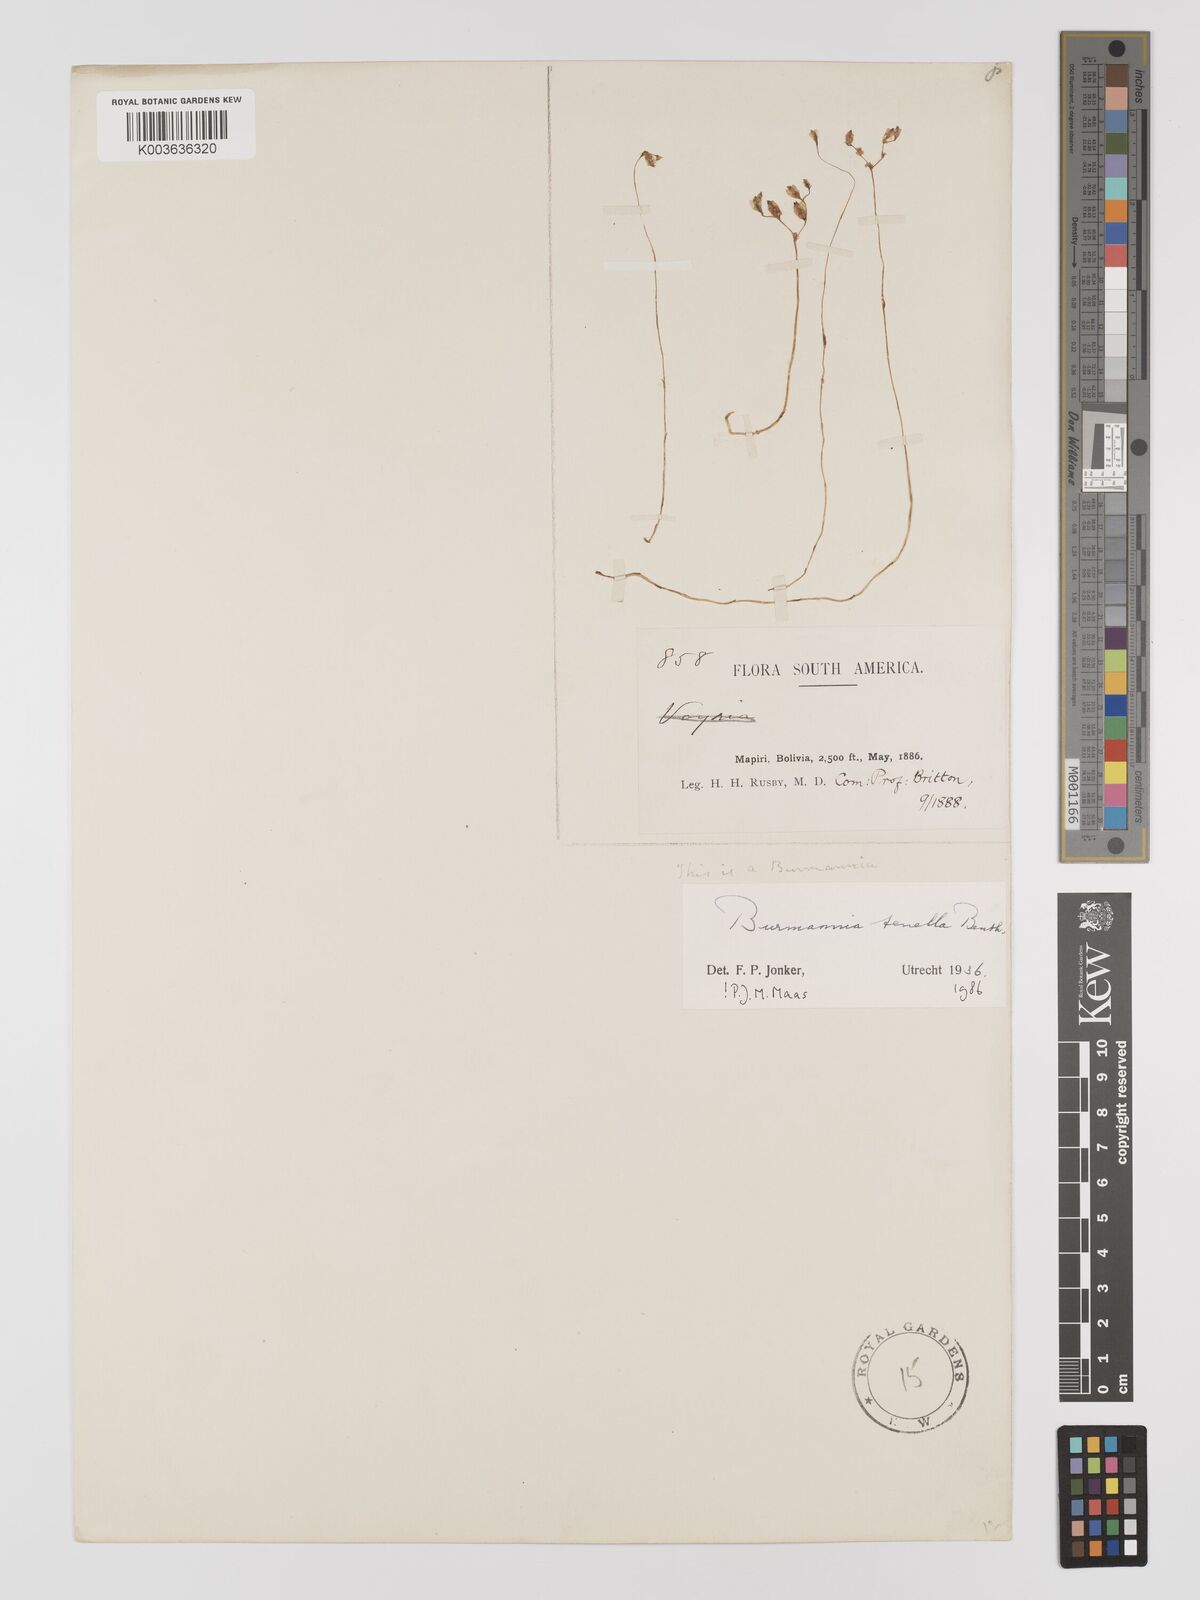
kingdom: Plantae
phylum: Tracheophyta
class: Liliopsida
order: Dioscoreales
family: Burmanniaceae
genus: Burmannia
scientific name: Burmannia tenella
